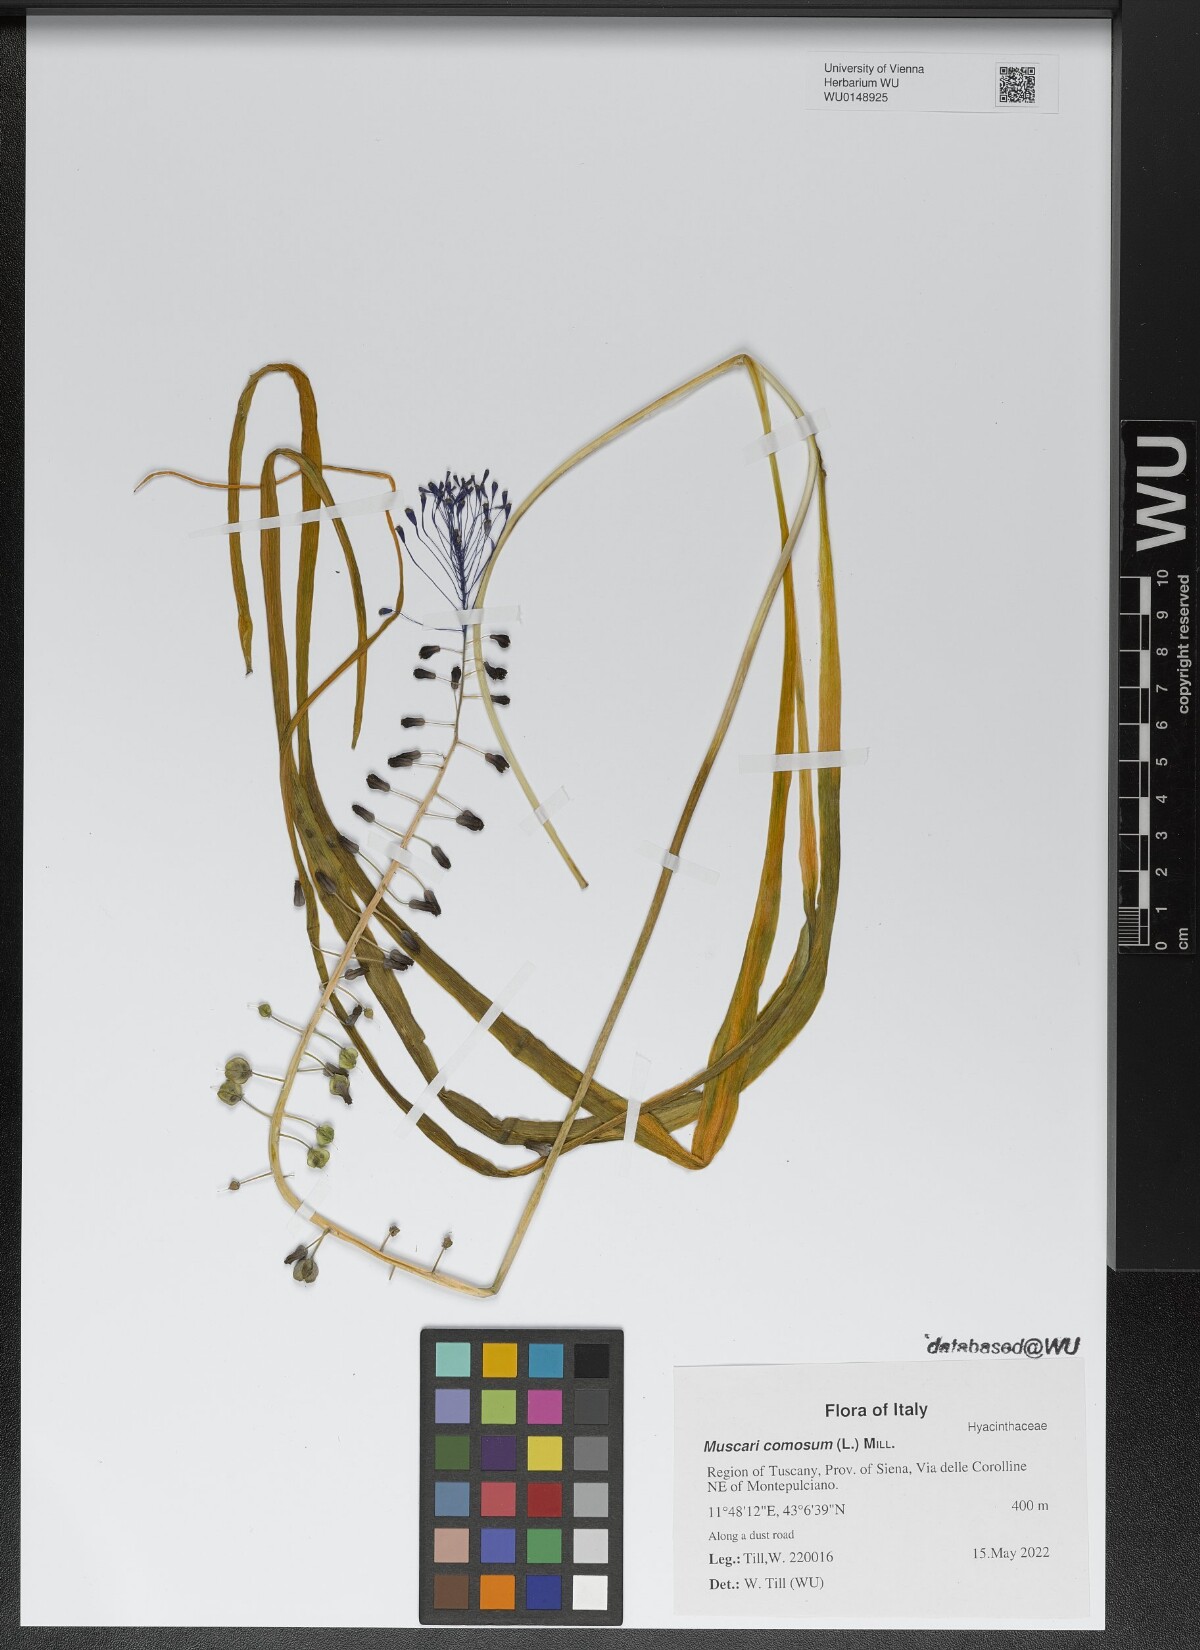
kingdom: Plantae
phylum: Tracheophyta
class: Liliopsida
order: Asparagales
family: Asparagaceae
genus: Muscari
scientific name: Muscari comosum
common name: Tassel hyacinth
